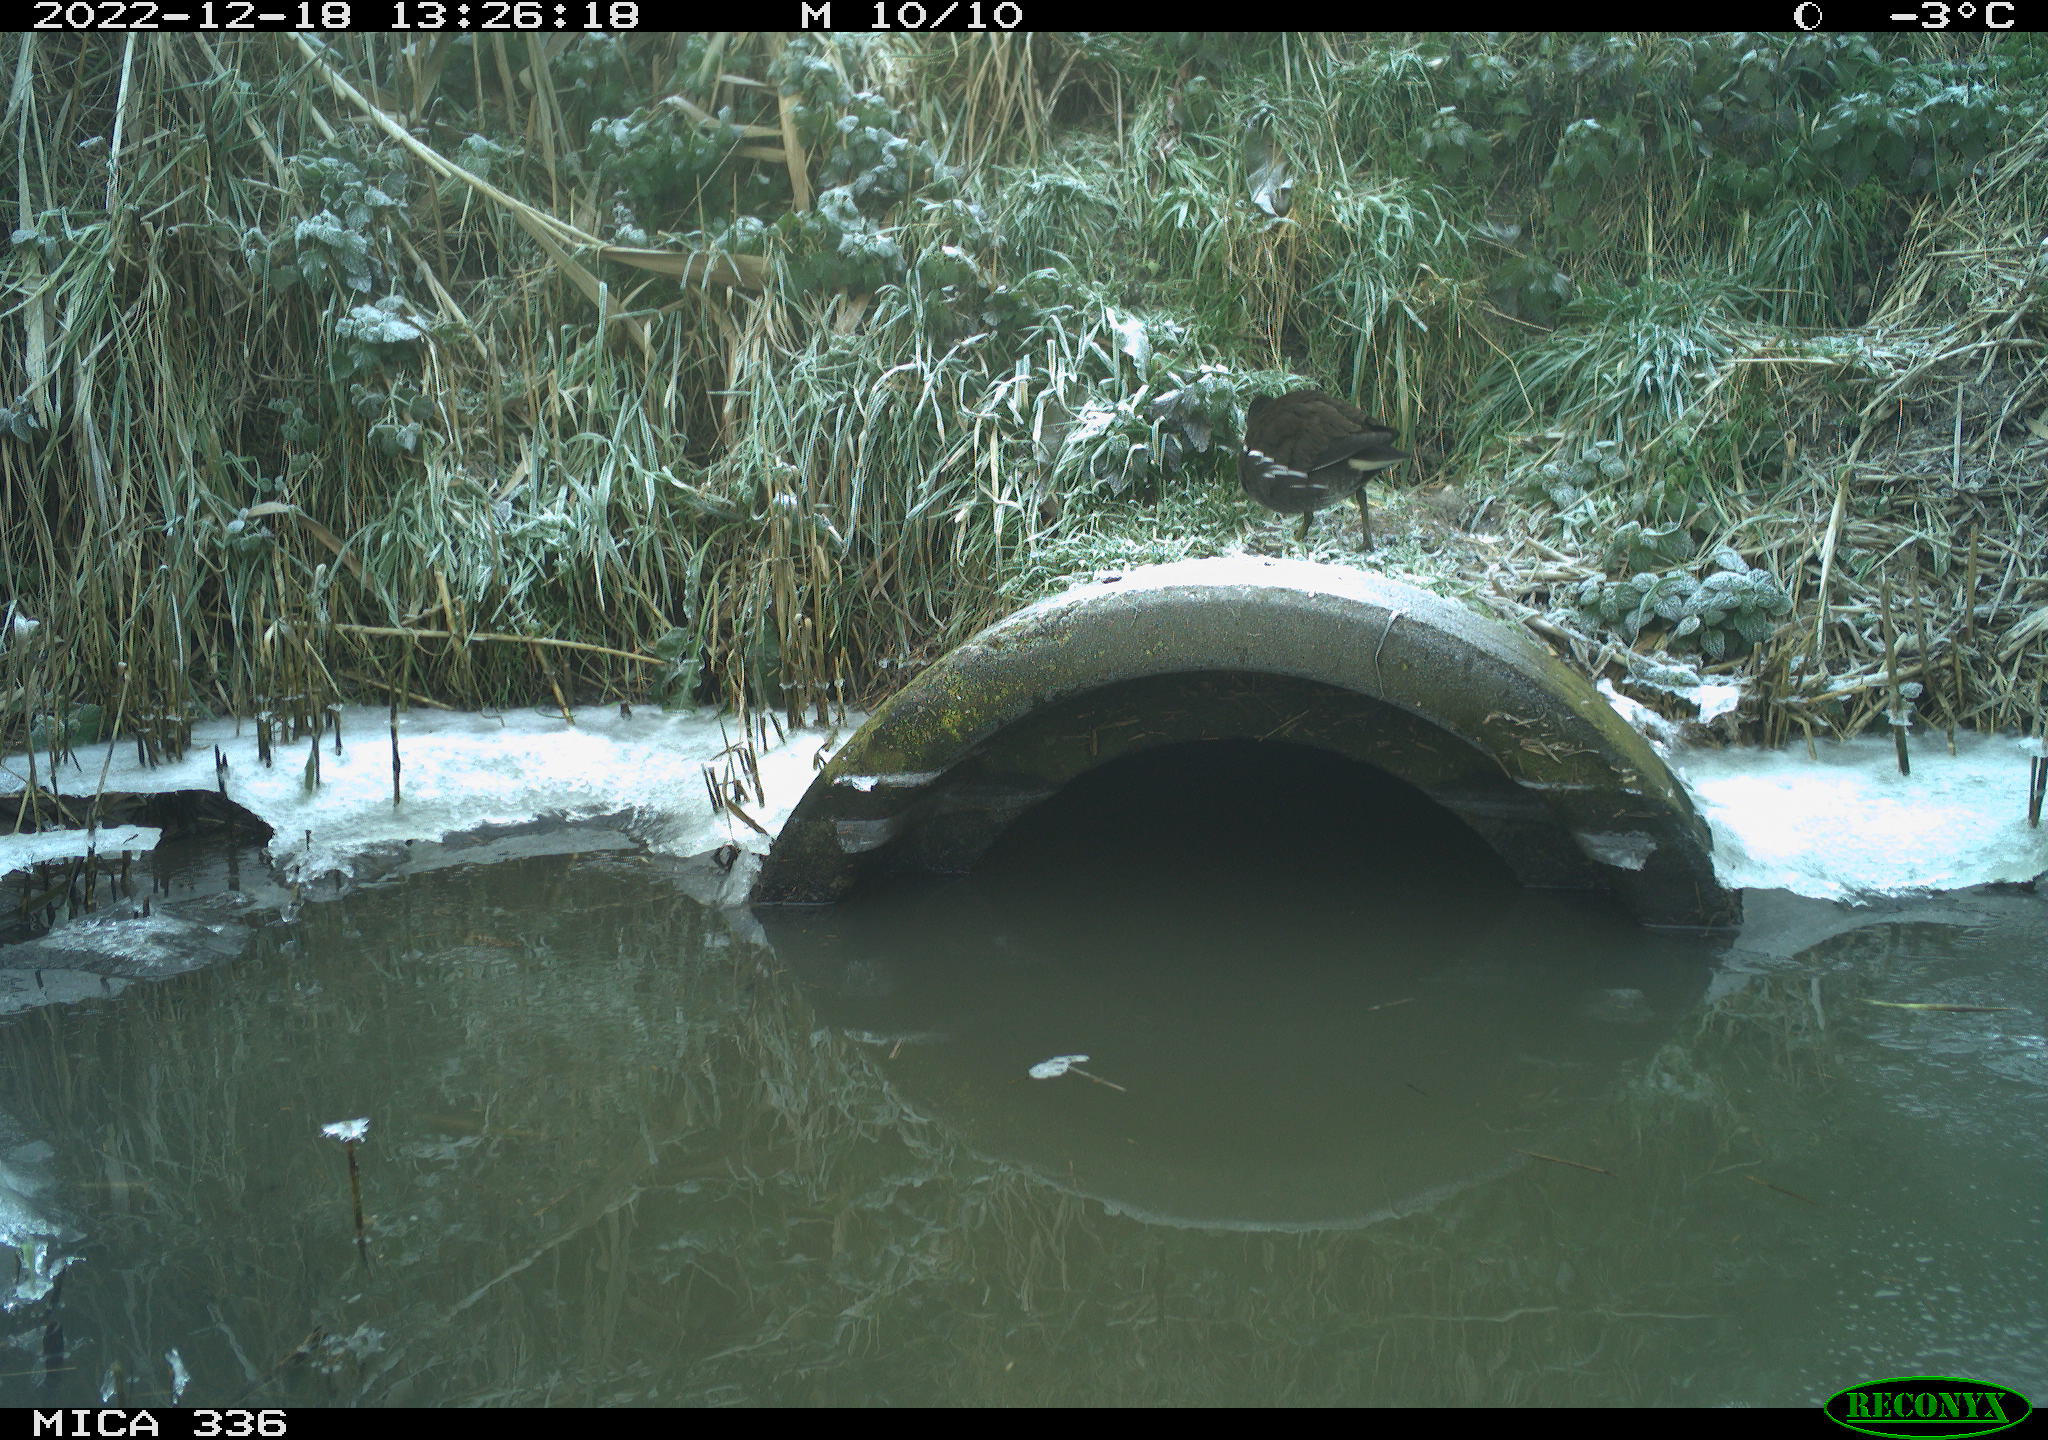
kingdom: Animalia
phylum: Chordata
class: Aves
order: Gruiformes
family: Rallidae
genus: Gallinula
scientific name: Gallinula chloropus
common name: Common moorhen
